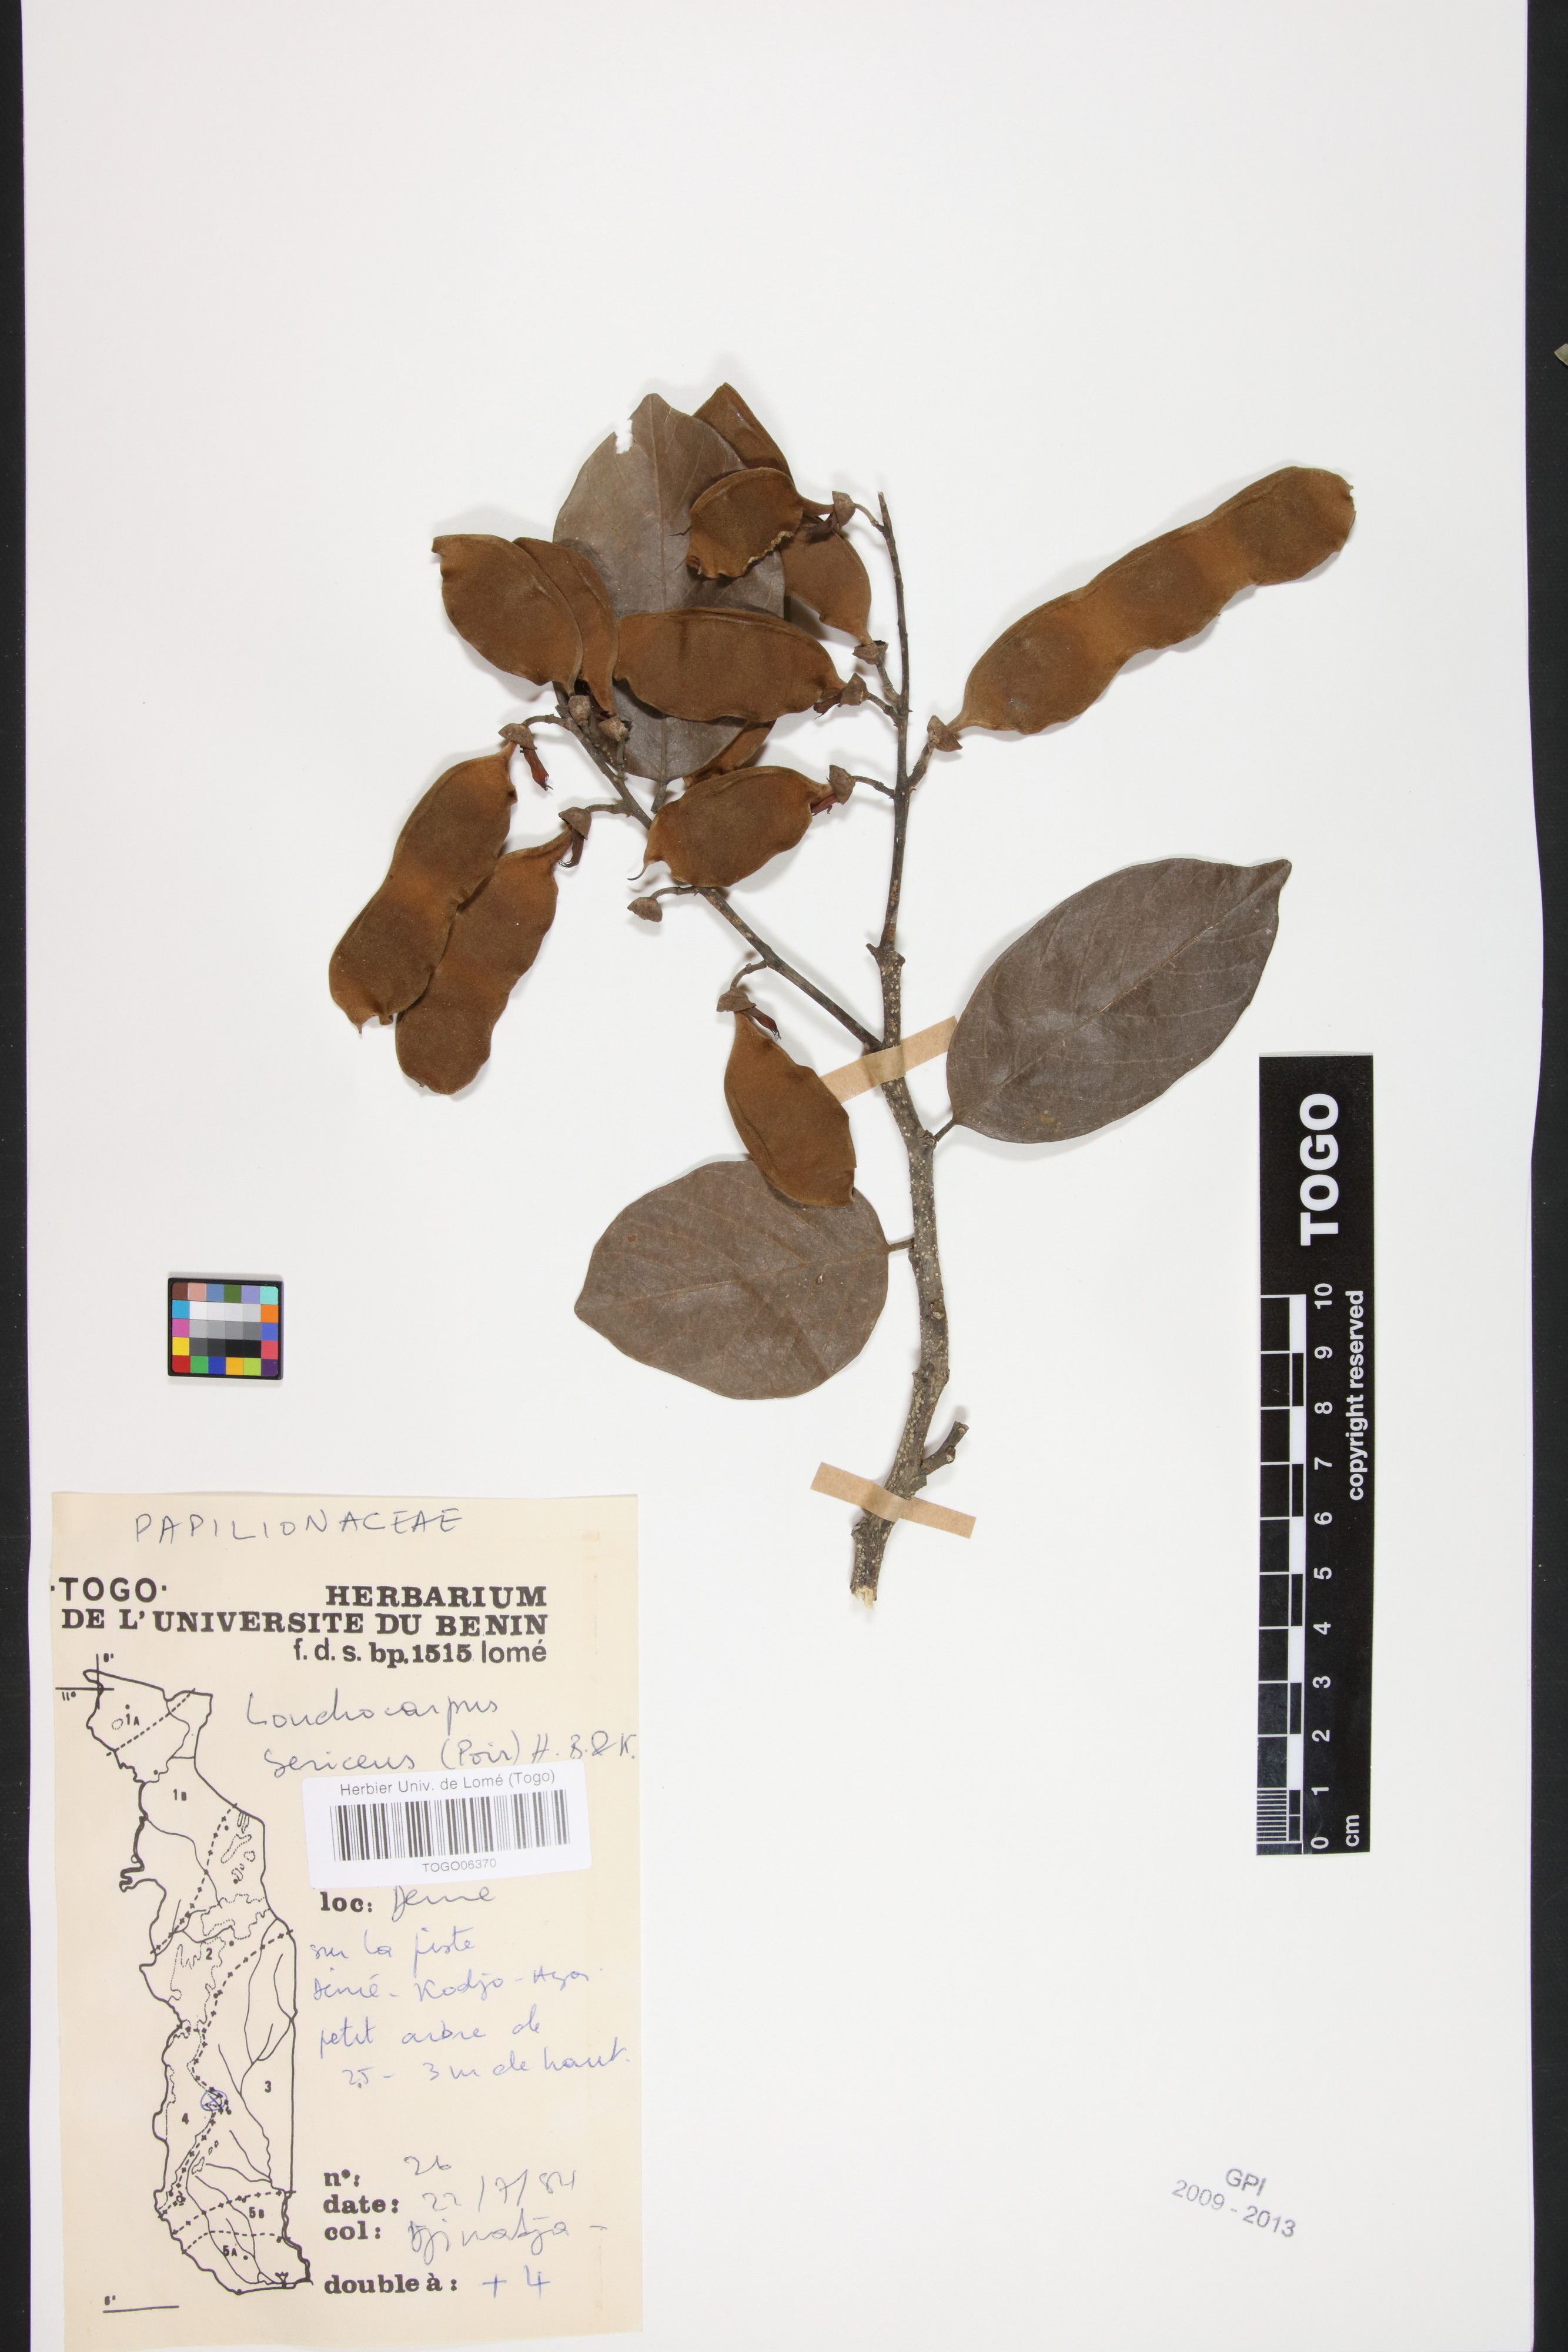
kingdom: Plantae
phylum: Tracheophyta
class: Magnoliopsida
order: Fabales
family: Fabaceae
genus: Lonchocarpus
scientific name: Lonchocarpus sericeus
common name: Savonette
